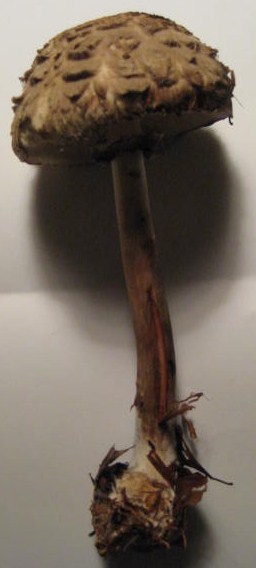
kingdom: Fungi
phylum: Basidiomycota
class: Agaricomycetes
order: Agaricales
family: Agaricaceae
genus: Chlorophyllum
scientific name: Chlorophyllum olivieri
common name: almindelig rabarberhat
